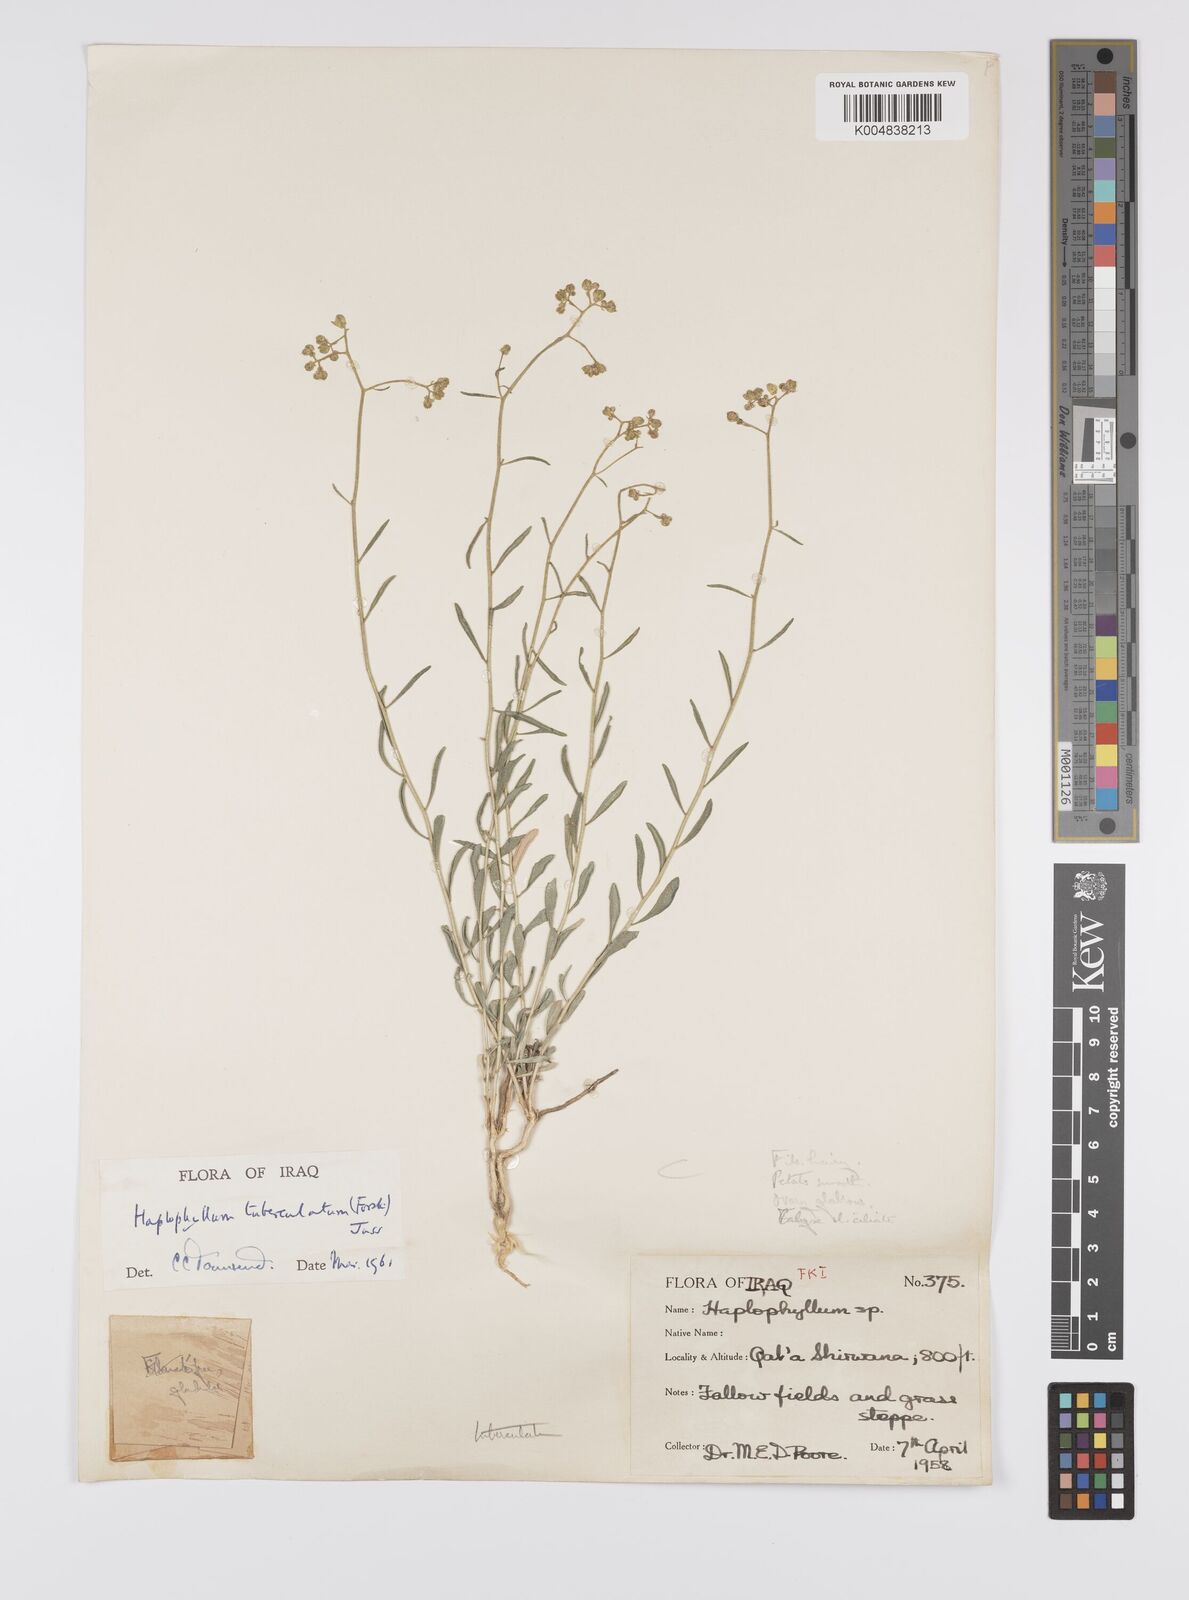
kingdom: Plantae
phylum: Tracheophyta
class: Magnoliopsida
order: Sapindales
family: Rutaceae
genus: Haplophyllum
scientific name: Haplophyllum tuberculatum
